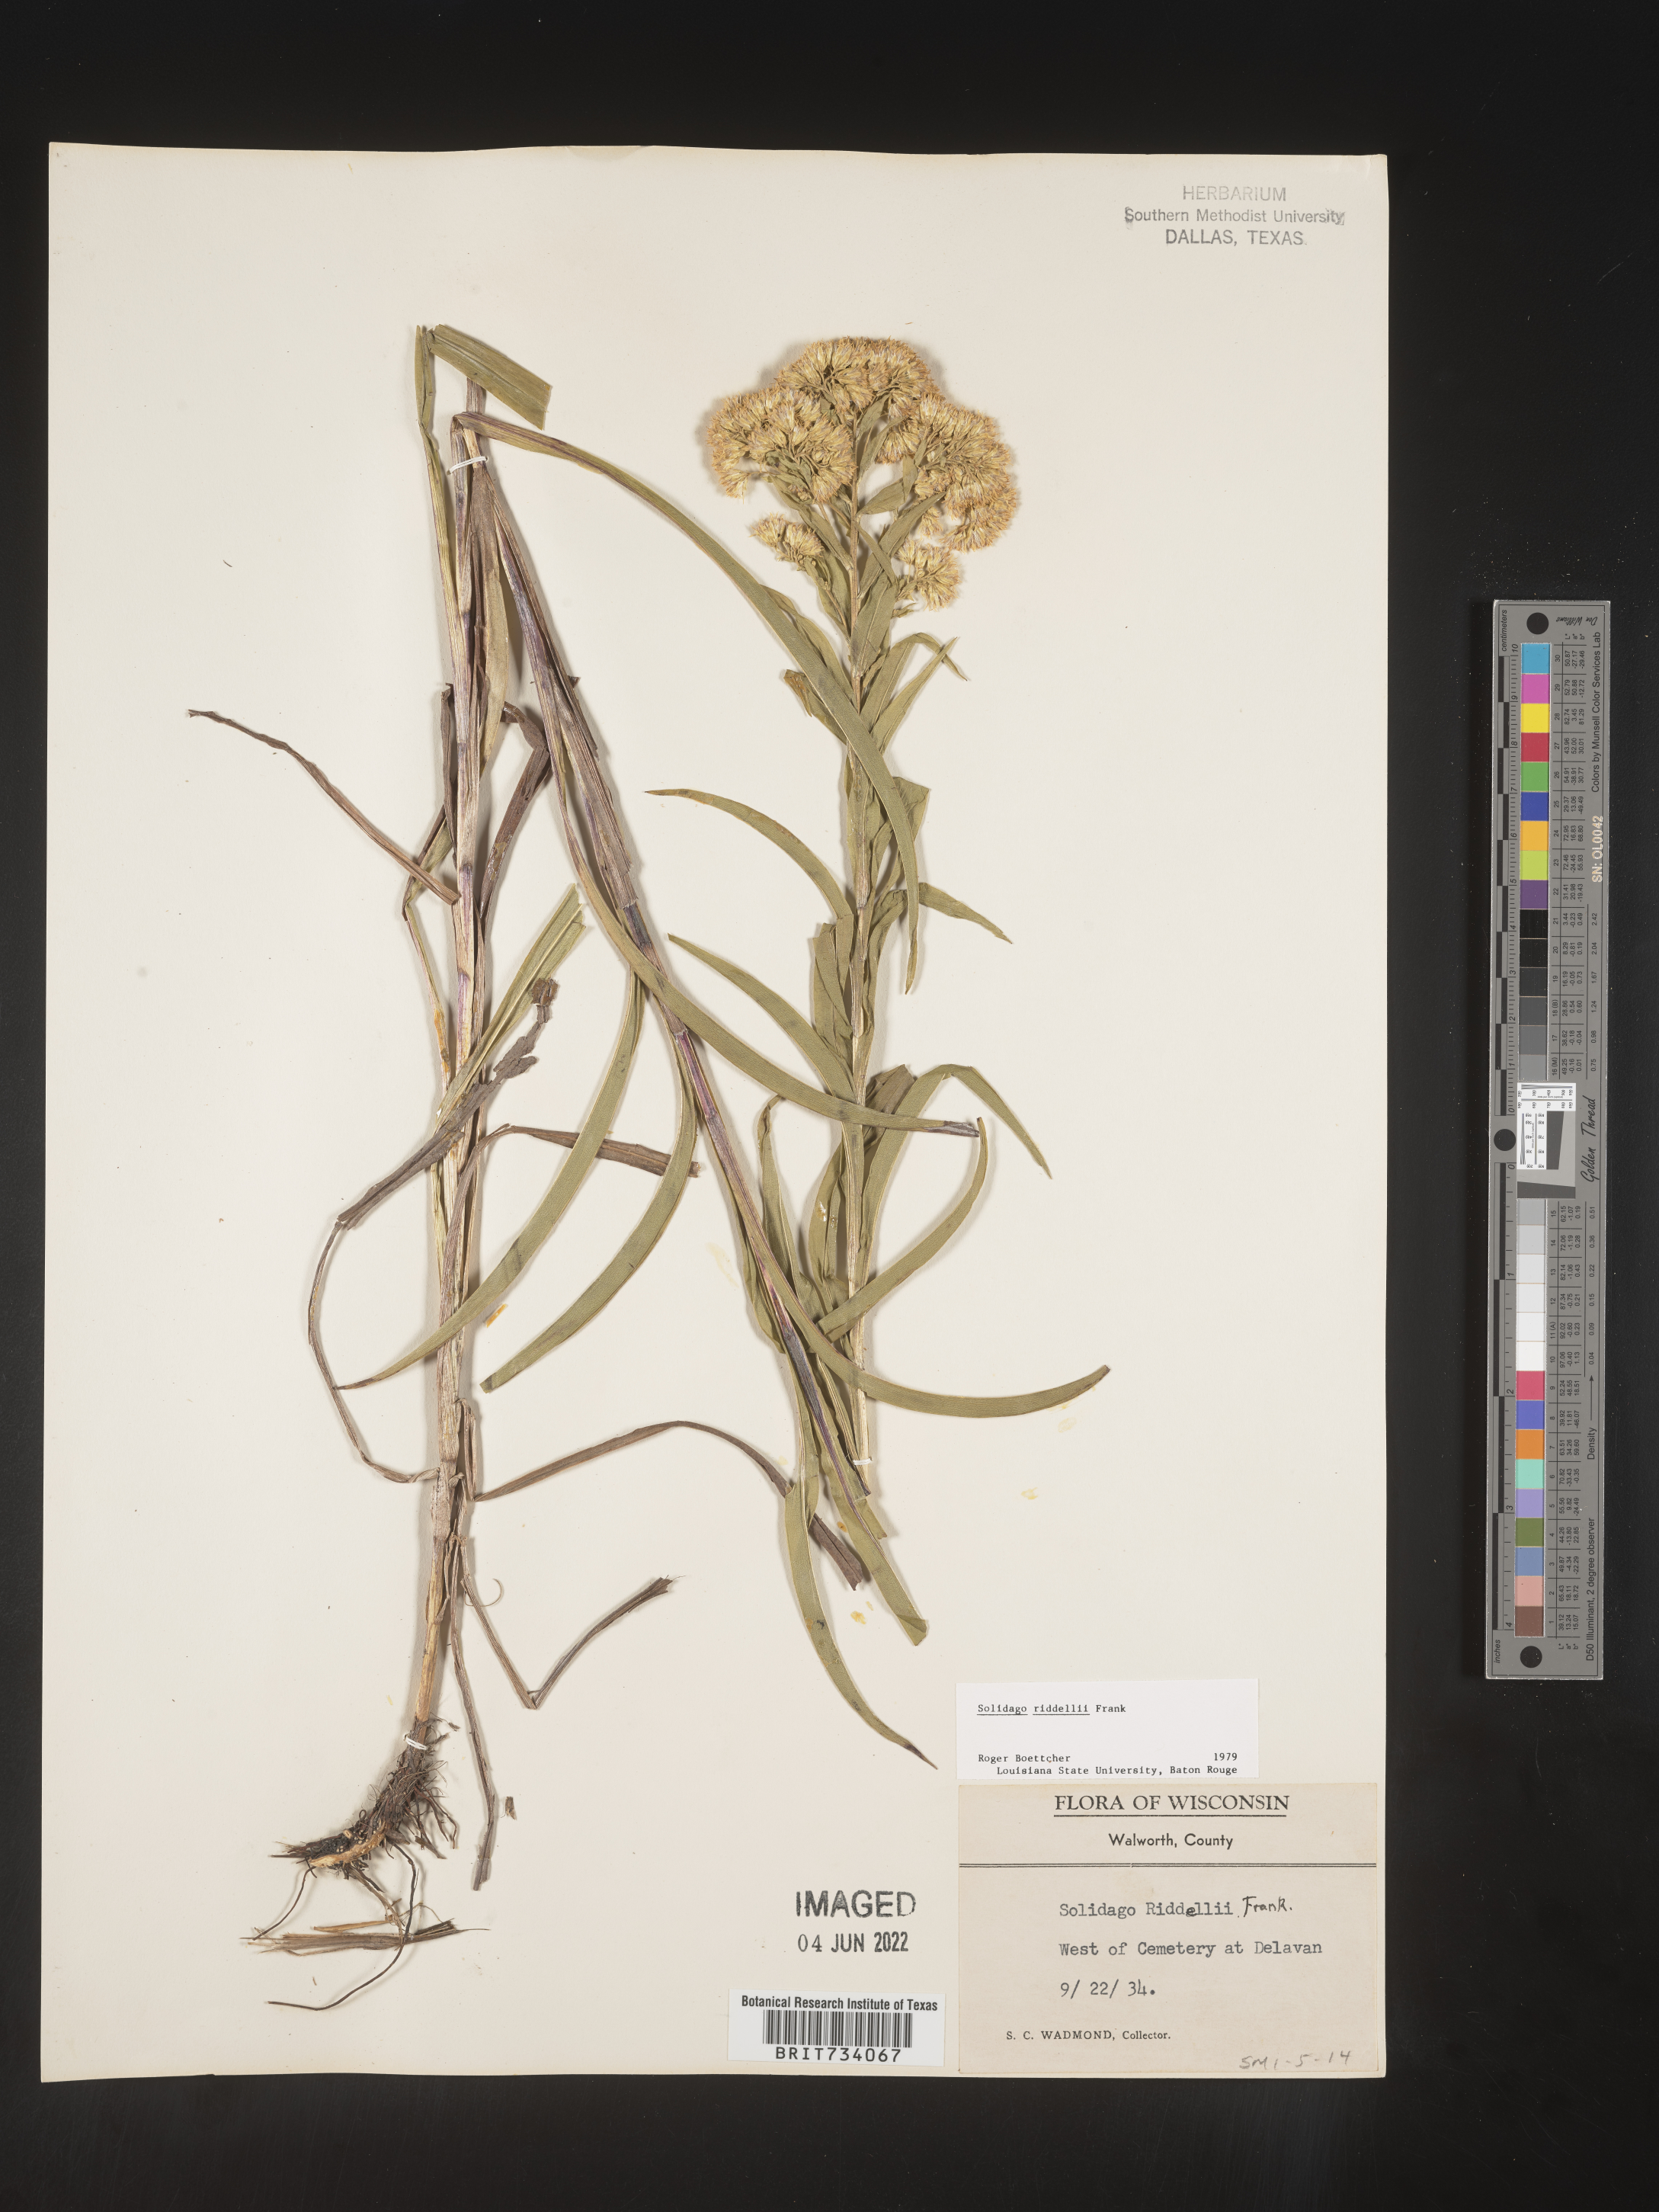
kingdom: Plantae
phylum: Tracheophyta
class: Magnoliopsida
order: Asterales
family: Asteraceae
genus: Solidago
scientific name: Solidago riddellii
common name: Riddell's goldenrod
